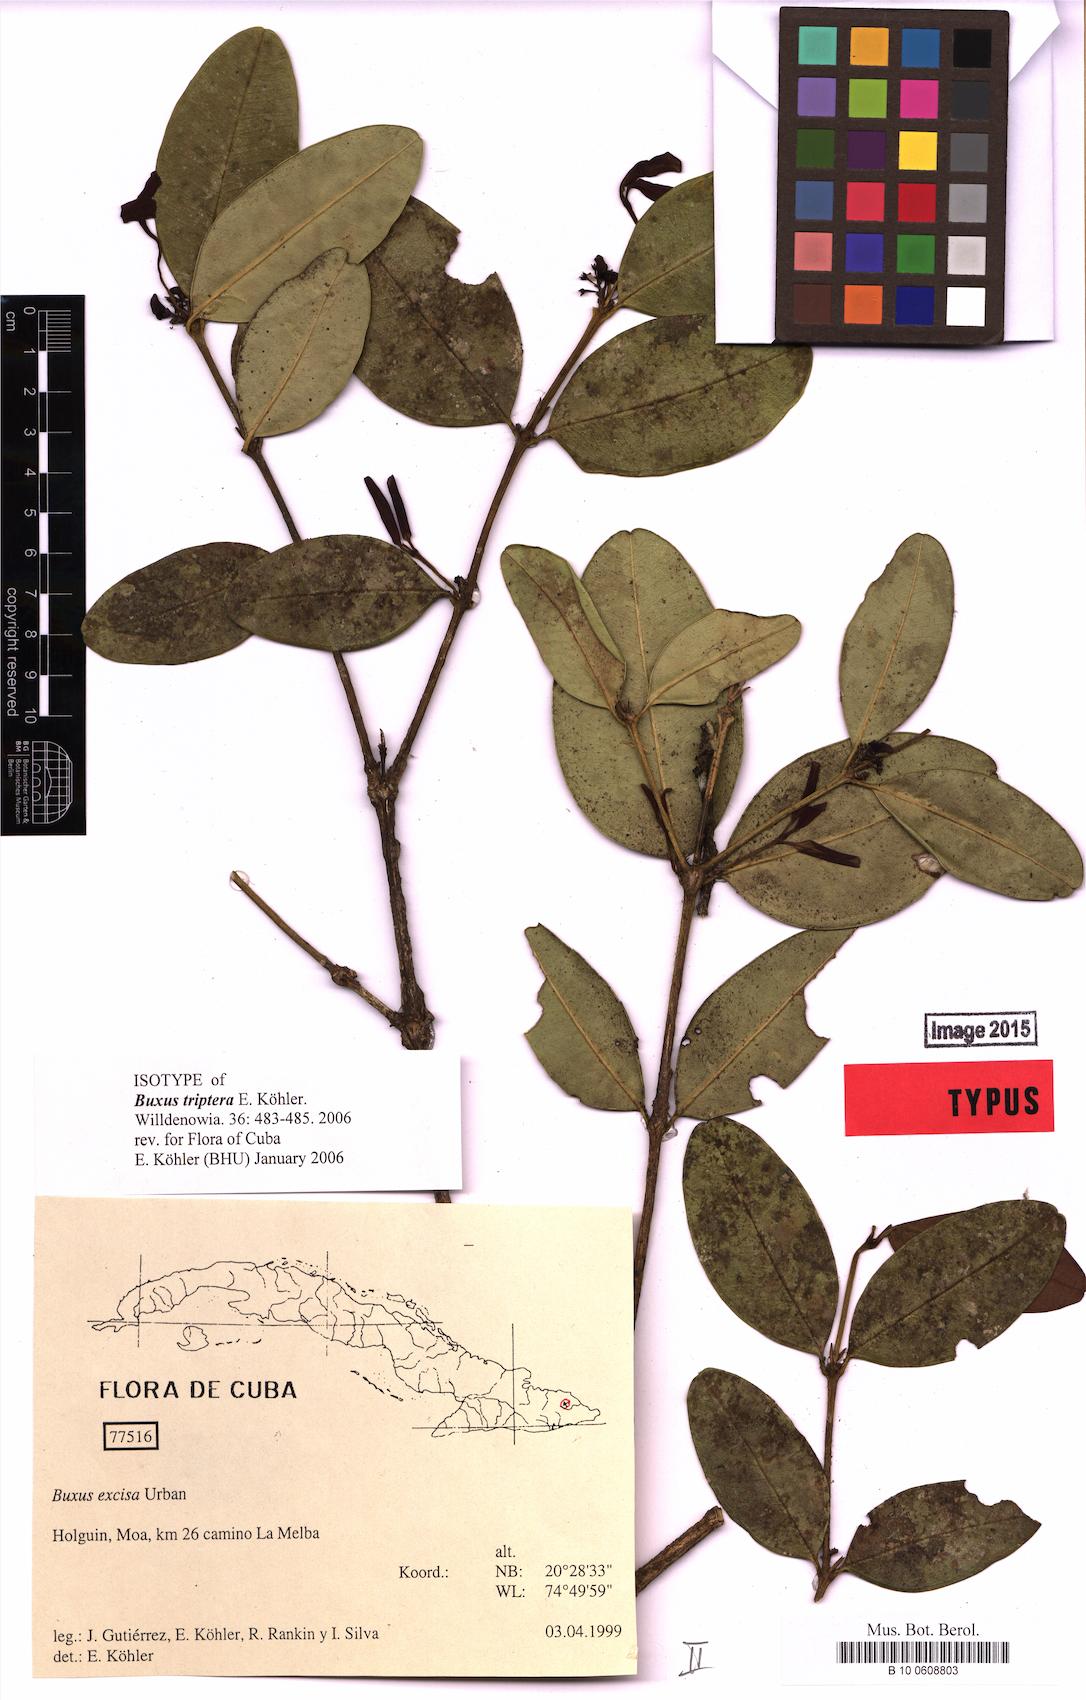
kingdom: Plantae
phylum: Tracheophyta
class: Magnoliopsida
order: Buxales
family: Buxaceae
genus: Buxus
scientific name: Buxus triptera
